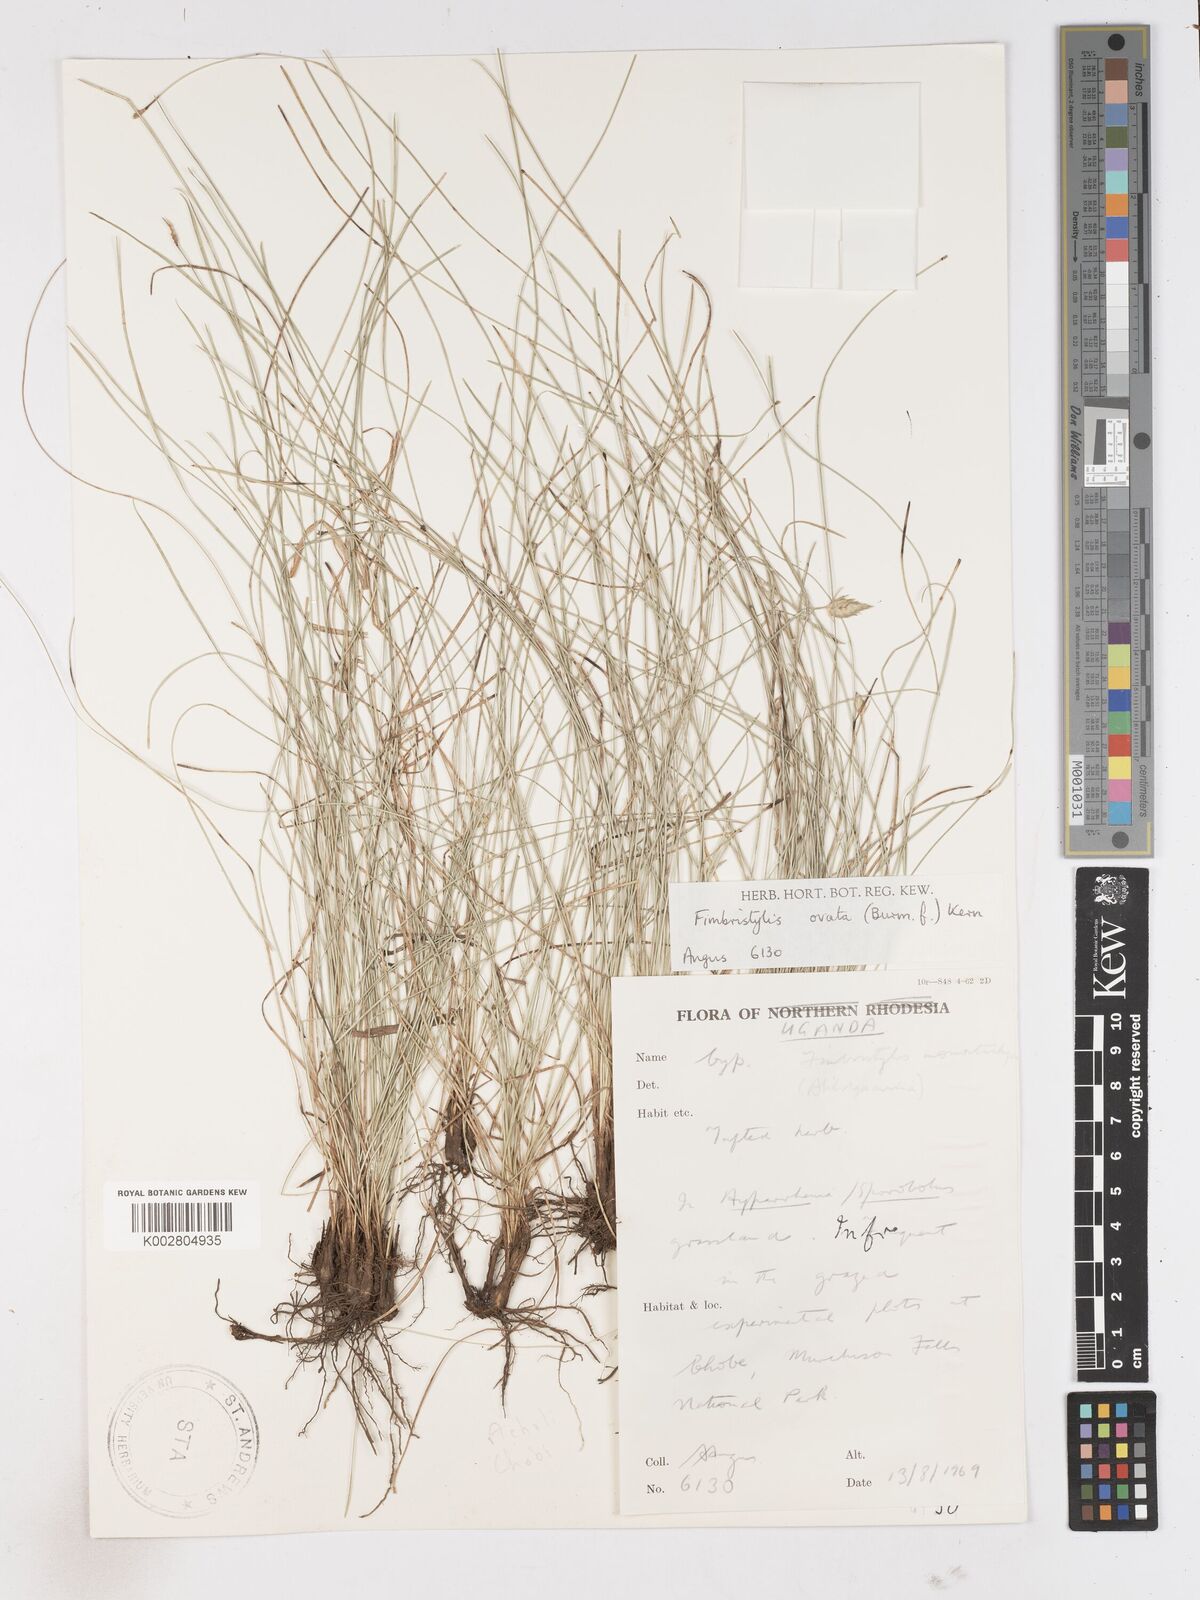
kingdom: Plantae
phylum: Tracheophyta
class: Liliopsida
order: Poales
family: Cyperaceae
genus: Abildgaardia
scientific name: Abildgaardia ovata
